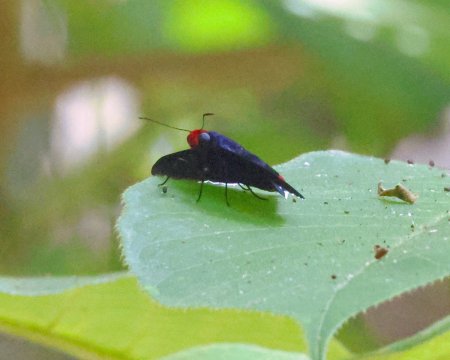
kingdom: Animalia
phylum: Arthropoda
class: Insecta
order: Lepidoptera
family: Hesperiidae
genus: Pyrrhopyge
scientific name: Pyrrhopyge phidias
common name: Red-headed Firetip
